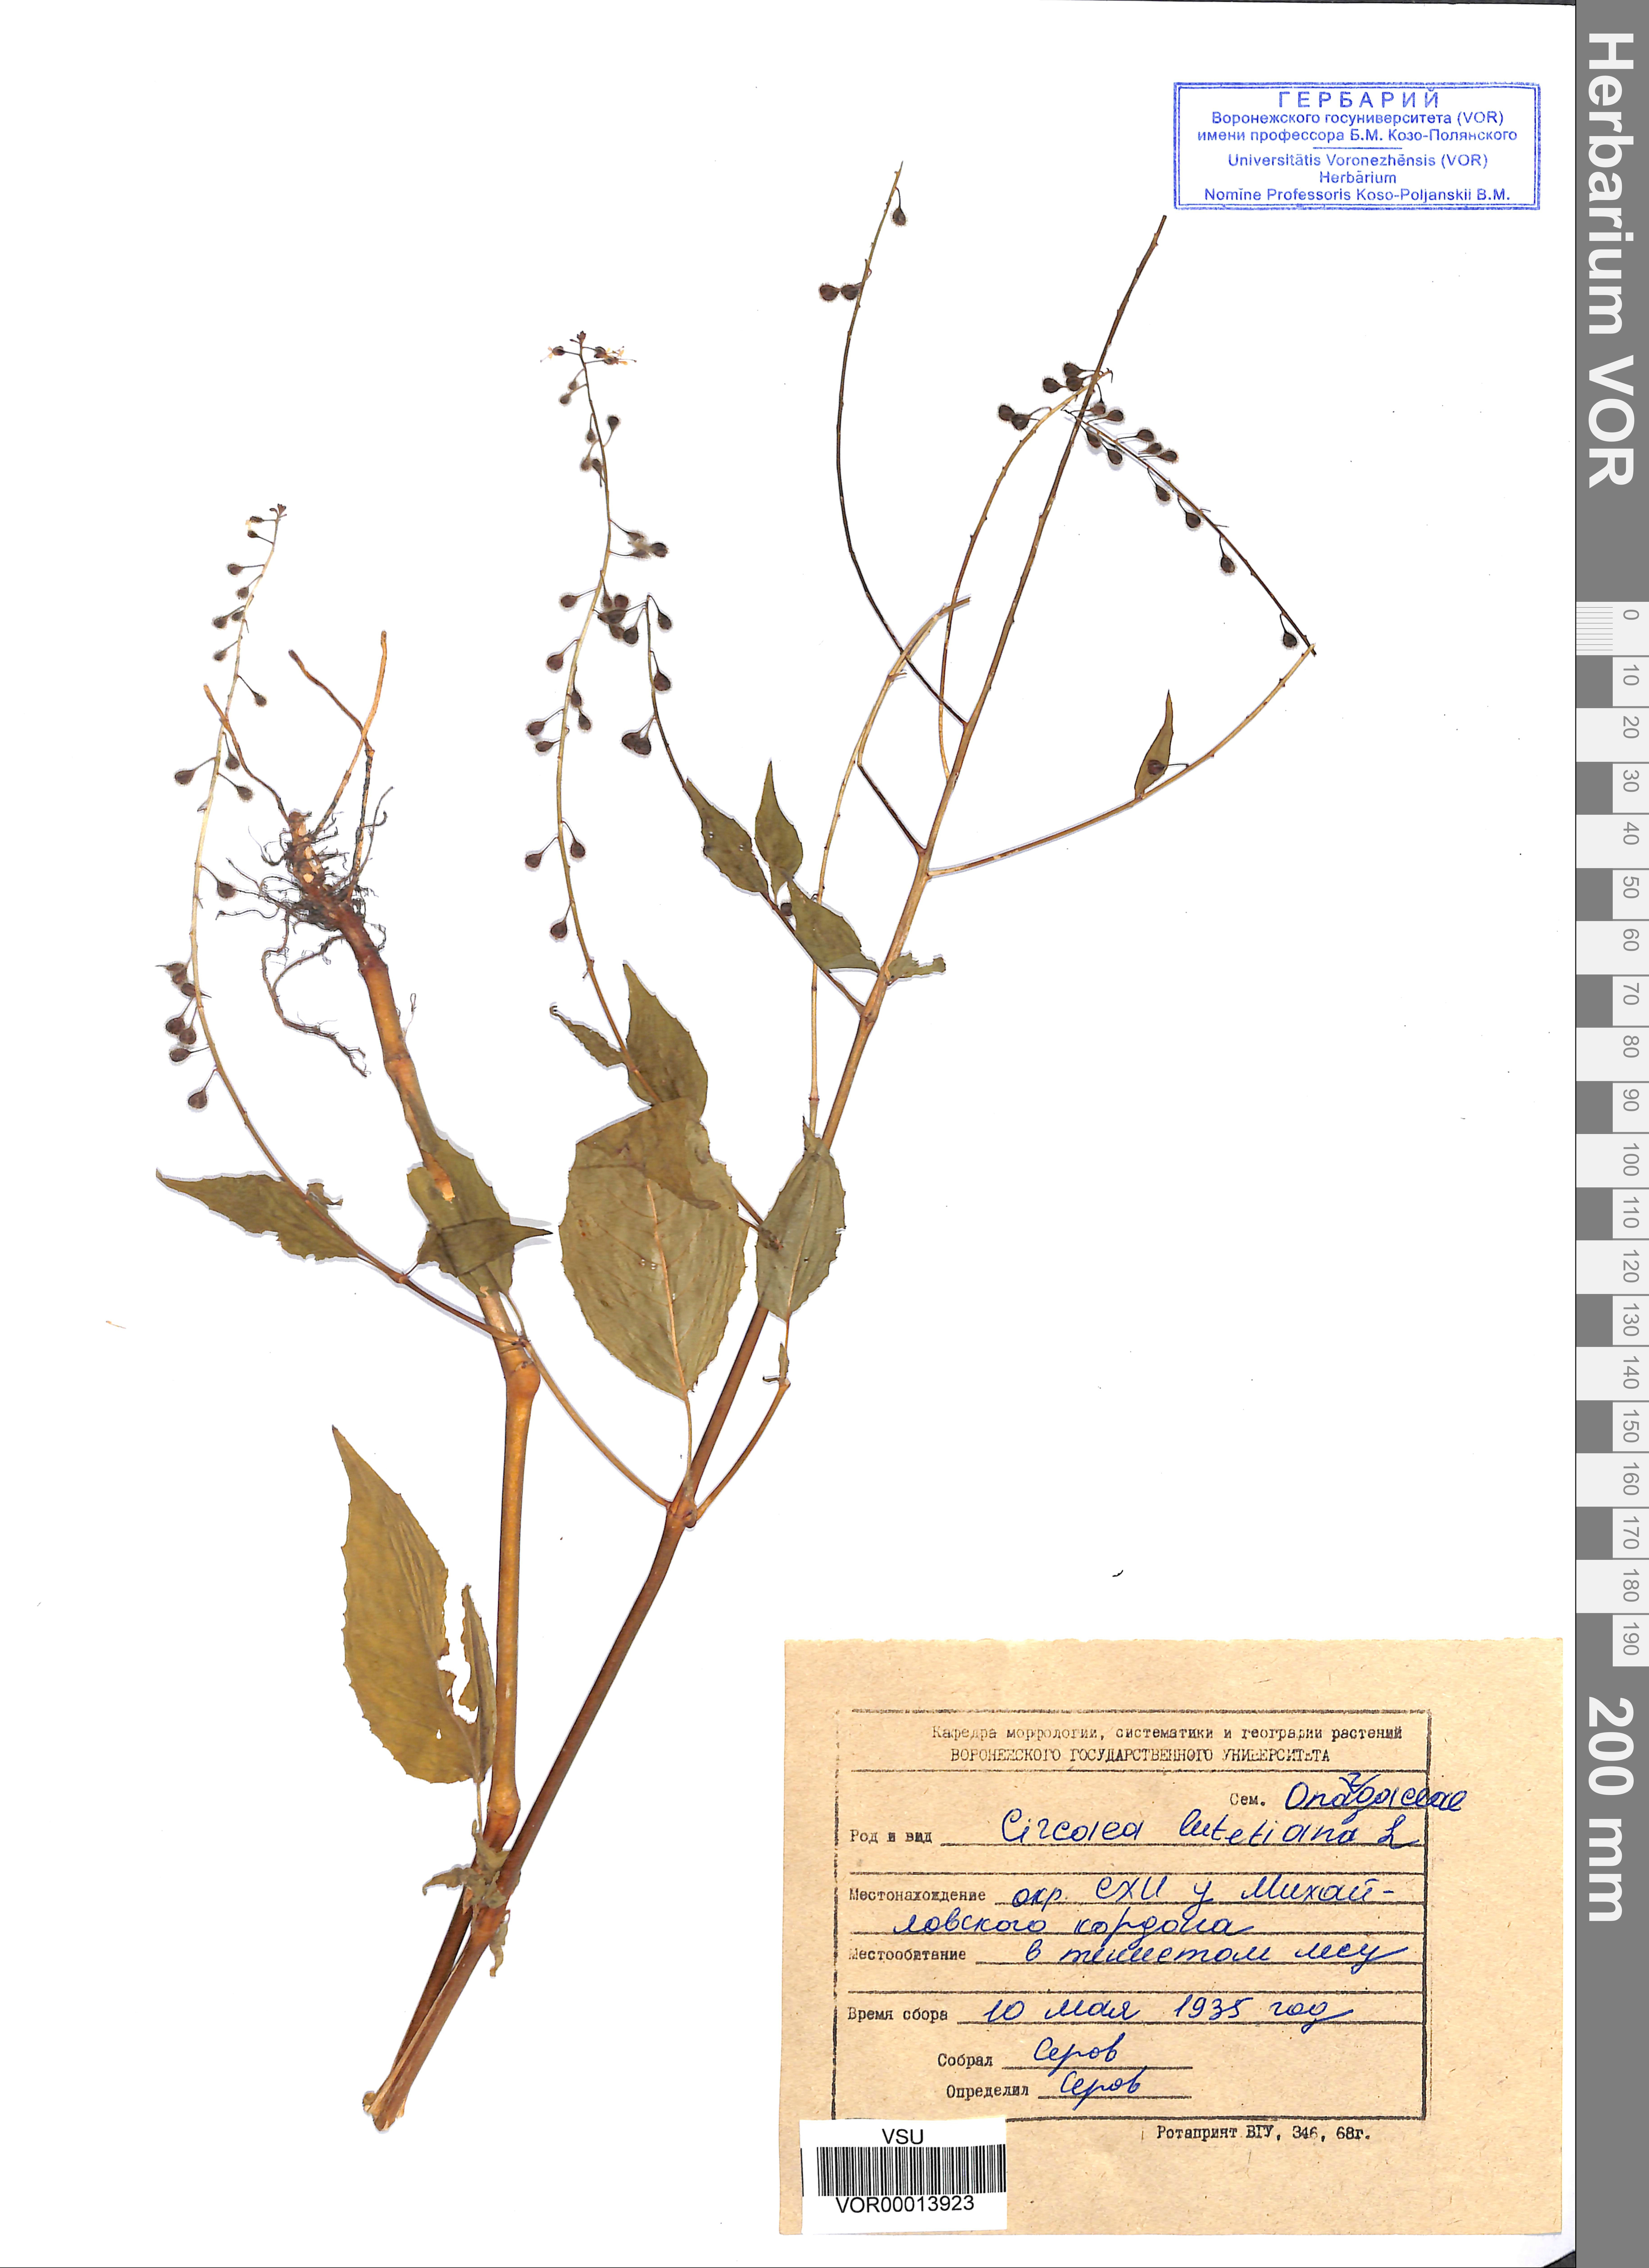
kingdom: Plantae
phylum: Tracheophyta
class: Magnoliopsida
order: Myrtales
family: Onagraceae
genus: Circaea
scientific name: Circaea alpina
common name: Alpine enchanter's-nightshade
